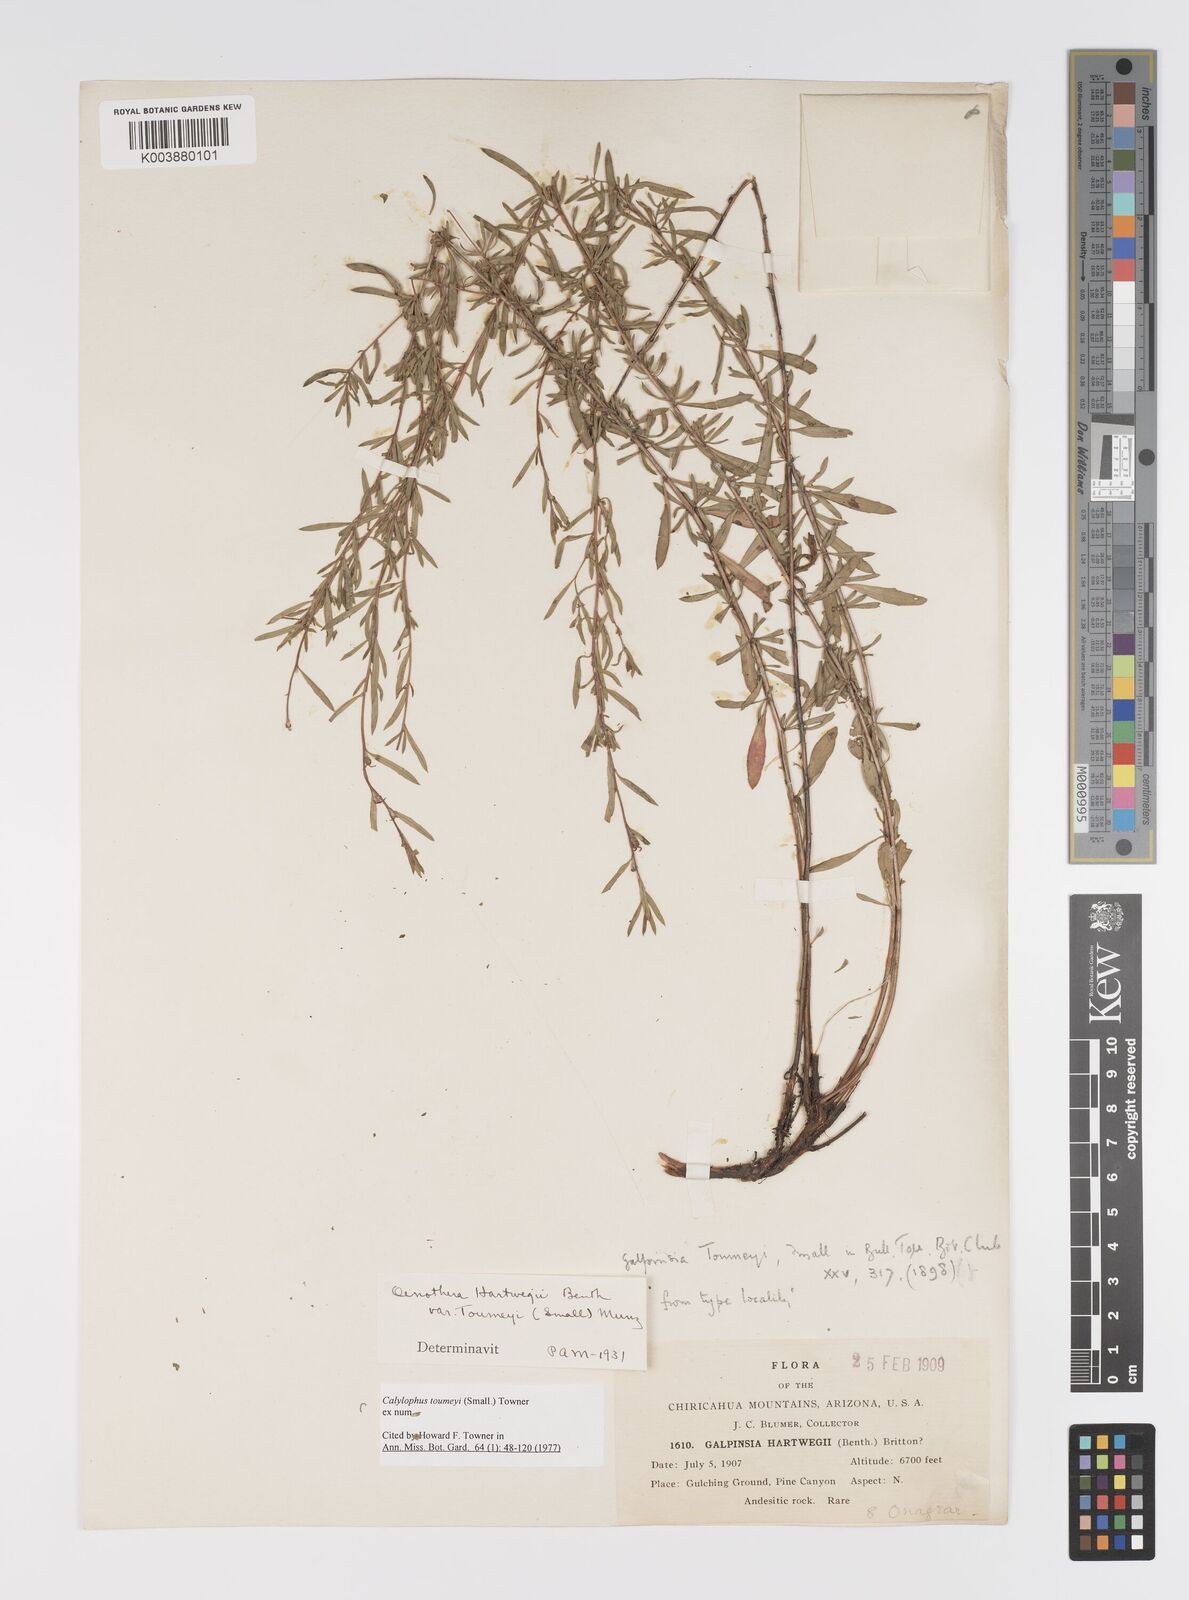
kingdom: Plantae
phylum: Tracheophyta
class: Magnoliopsida
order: Myrtales
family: Onagraceae
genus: Oenothera
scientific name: Oenothera toumeyi
